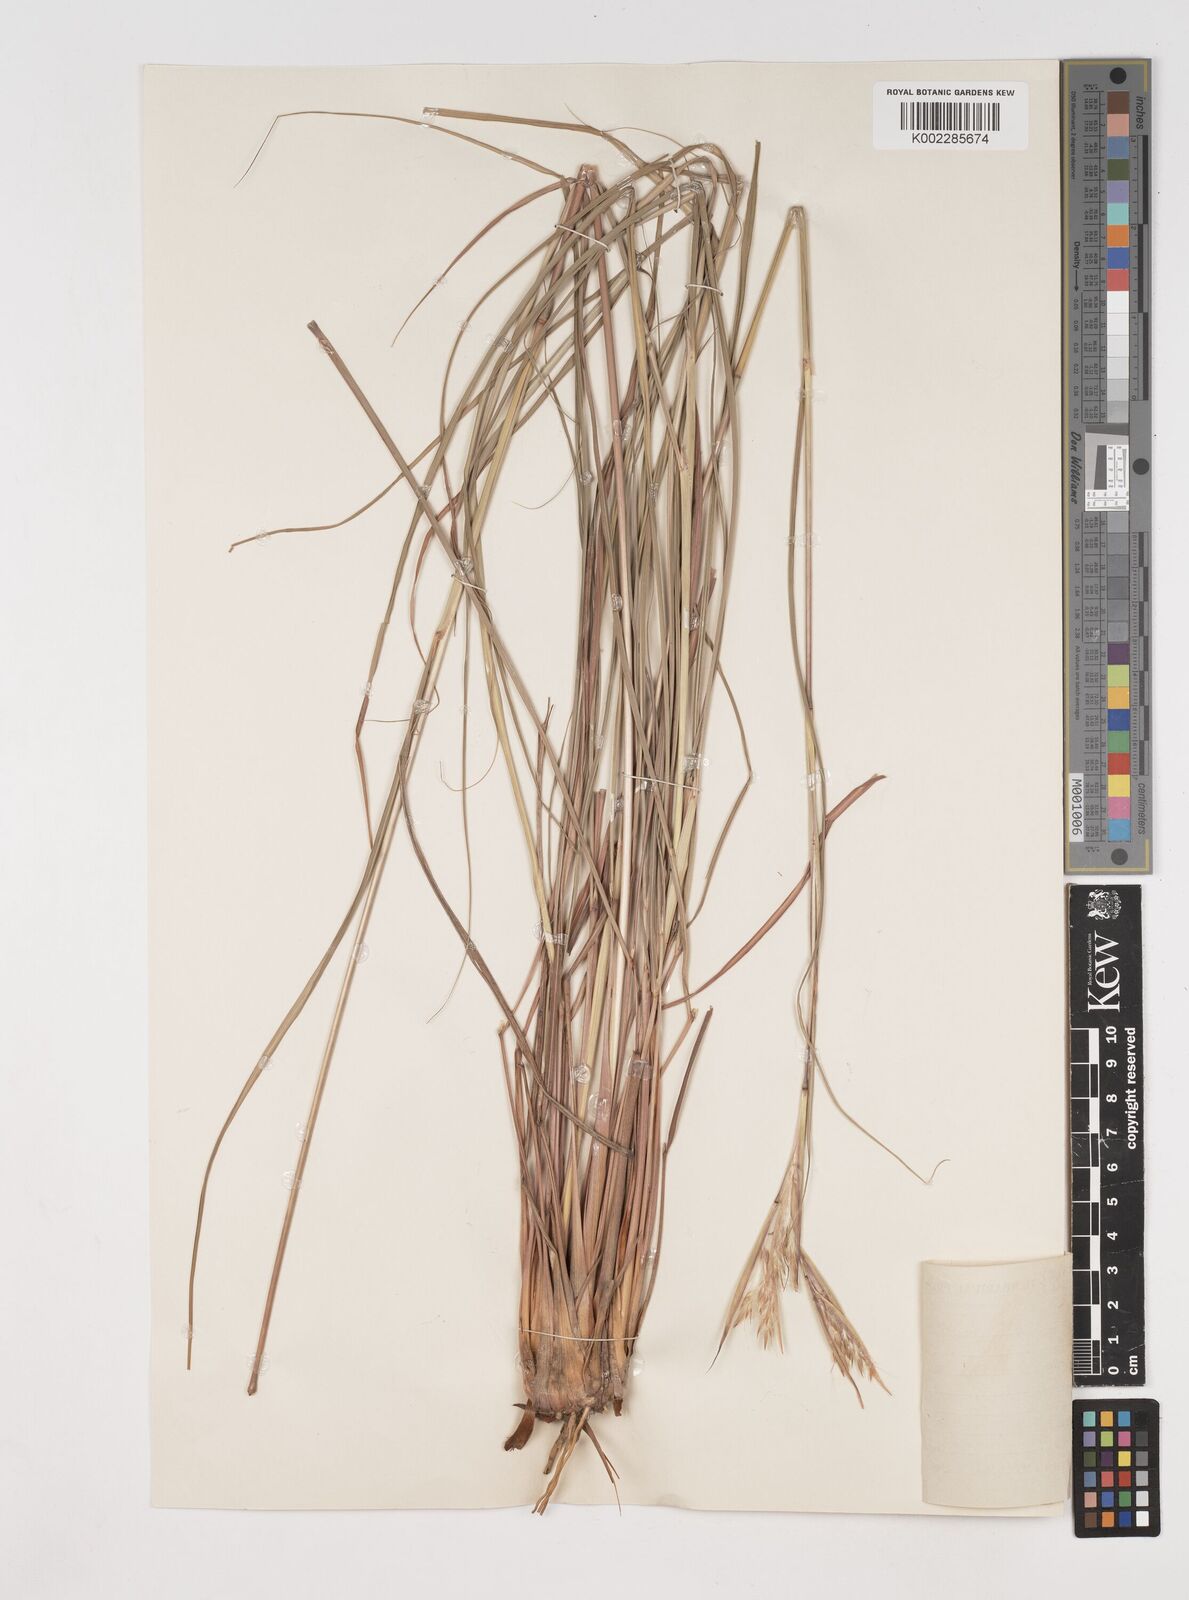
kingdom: Plantae
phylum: Tracheophyta
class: Liliopsida
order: Poales
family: Poaceae
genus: Cymbopogon
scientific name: Cymbopogon marginatus
